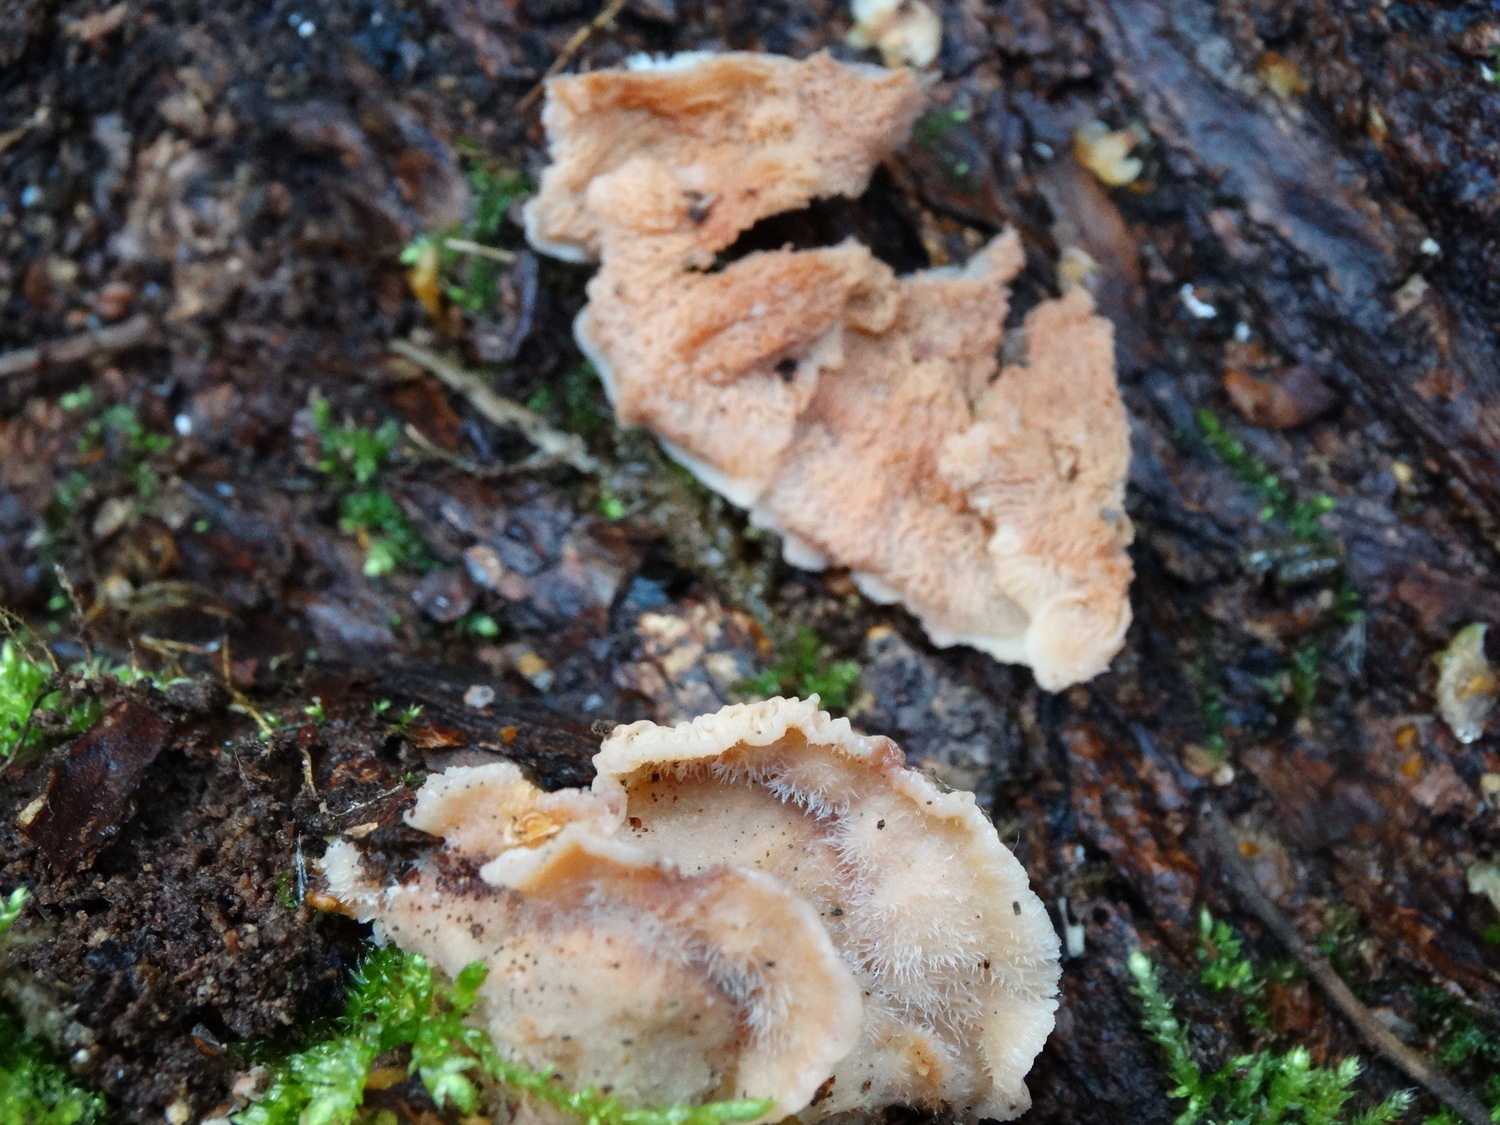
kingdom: Fungi
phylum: Basidiomycota
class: Agaricomycetes
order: Polyporales
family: Meruliaceae
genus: Phlebia
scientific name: Phlebia tremellosa
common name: bævrende åresvamp
